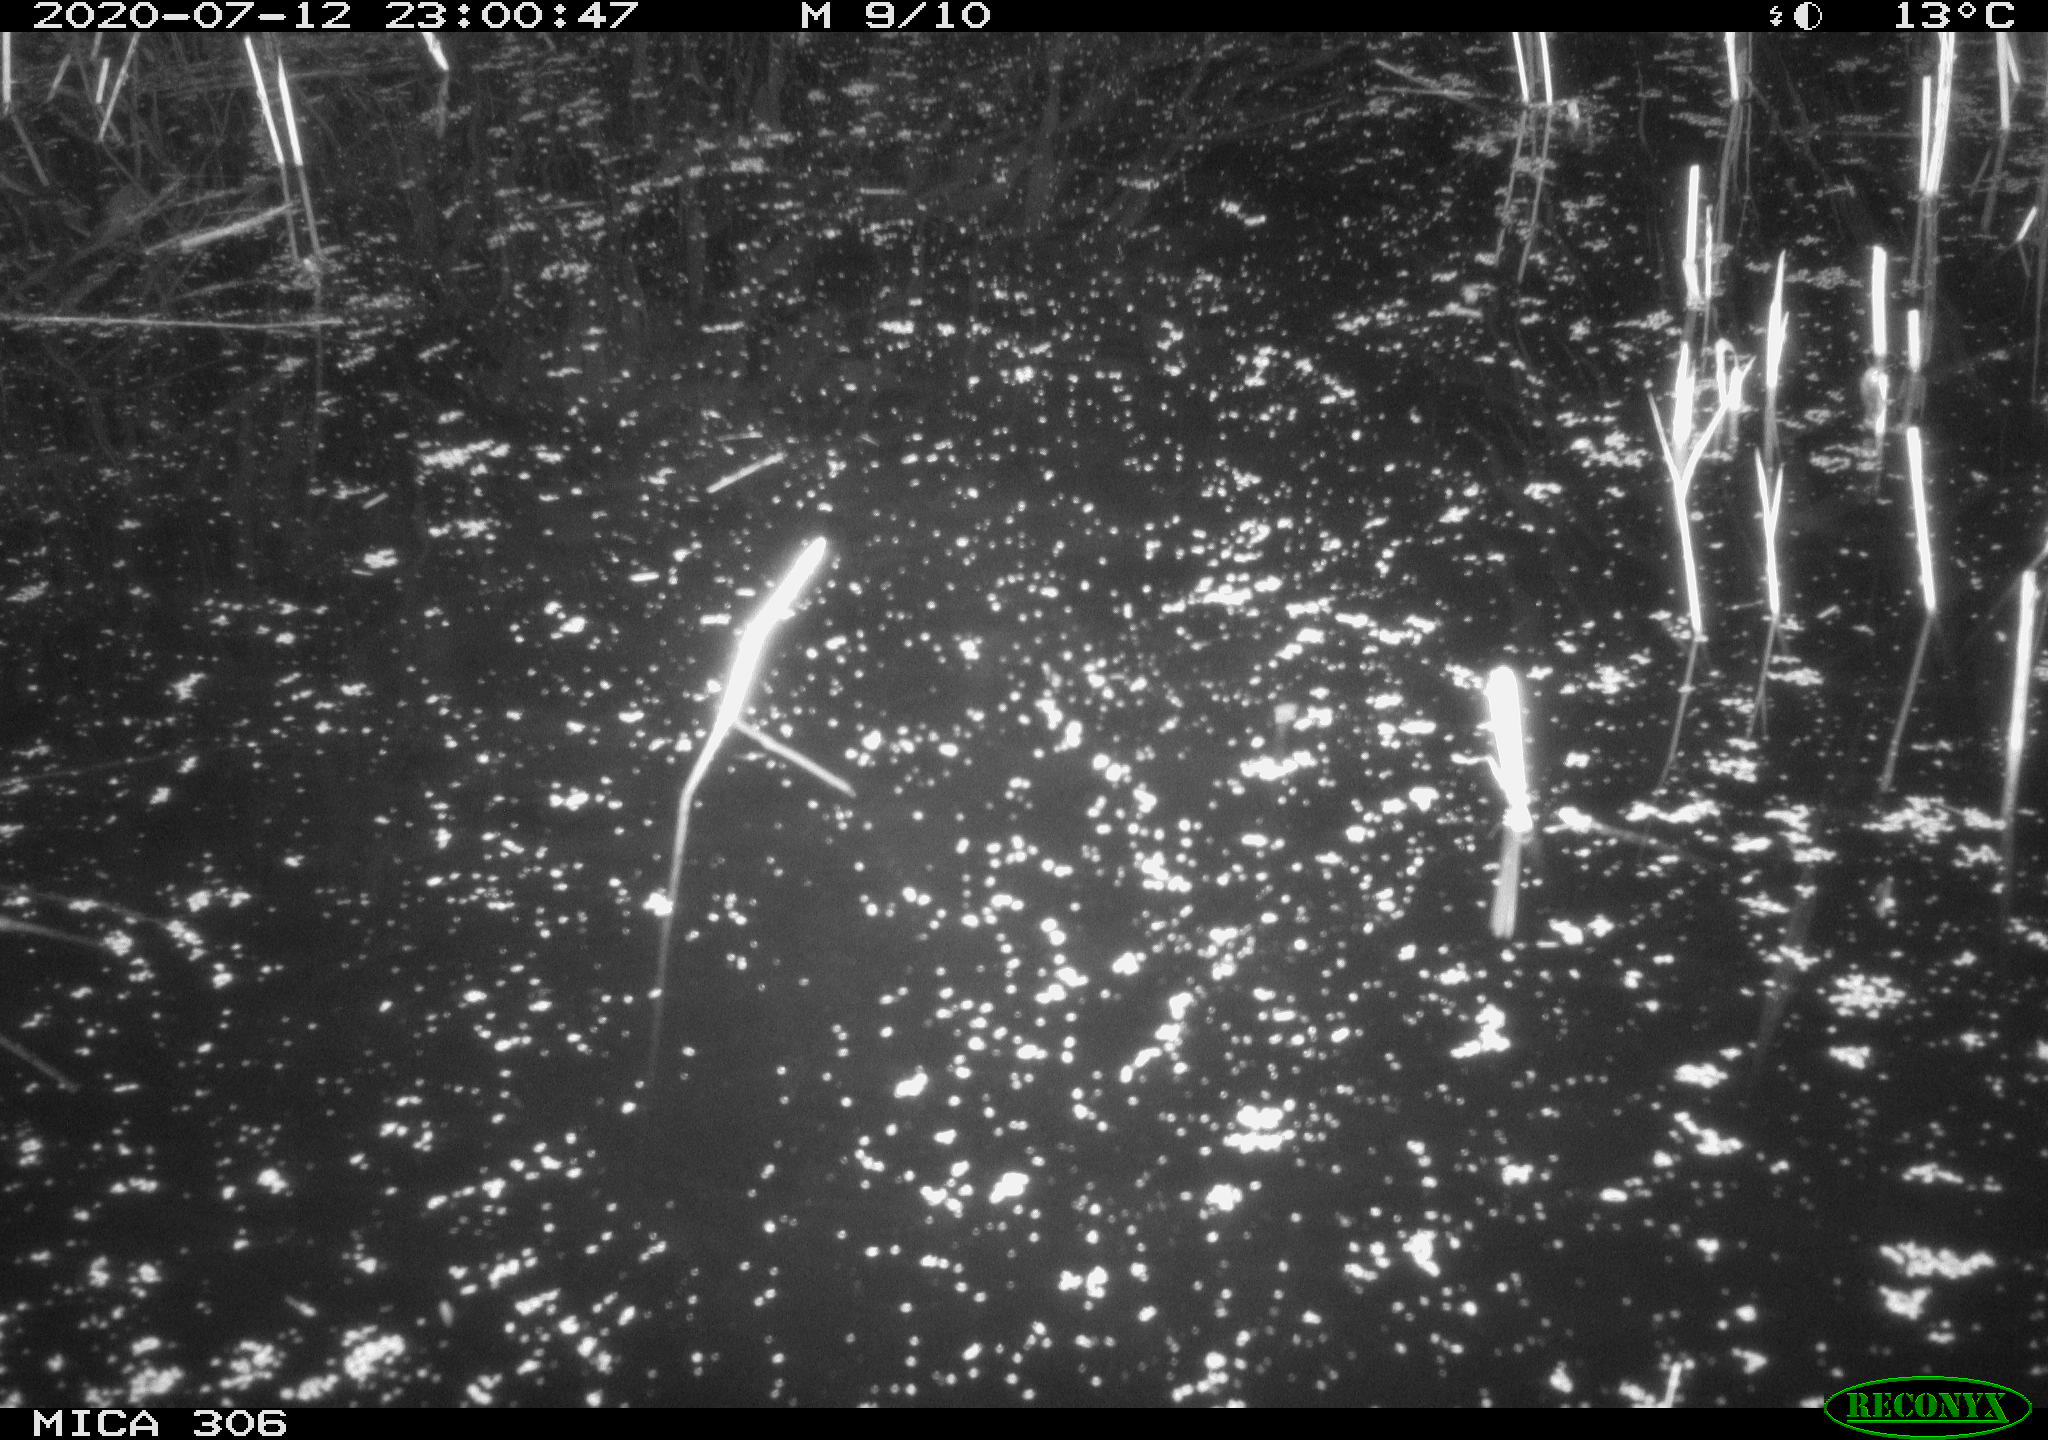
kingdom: Animalia
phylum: Chordata
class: Mammalia
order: Rodentia
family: Cricetidae
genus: Ondatra
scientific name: Ondatra zibethicus
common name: Muskrat
